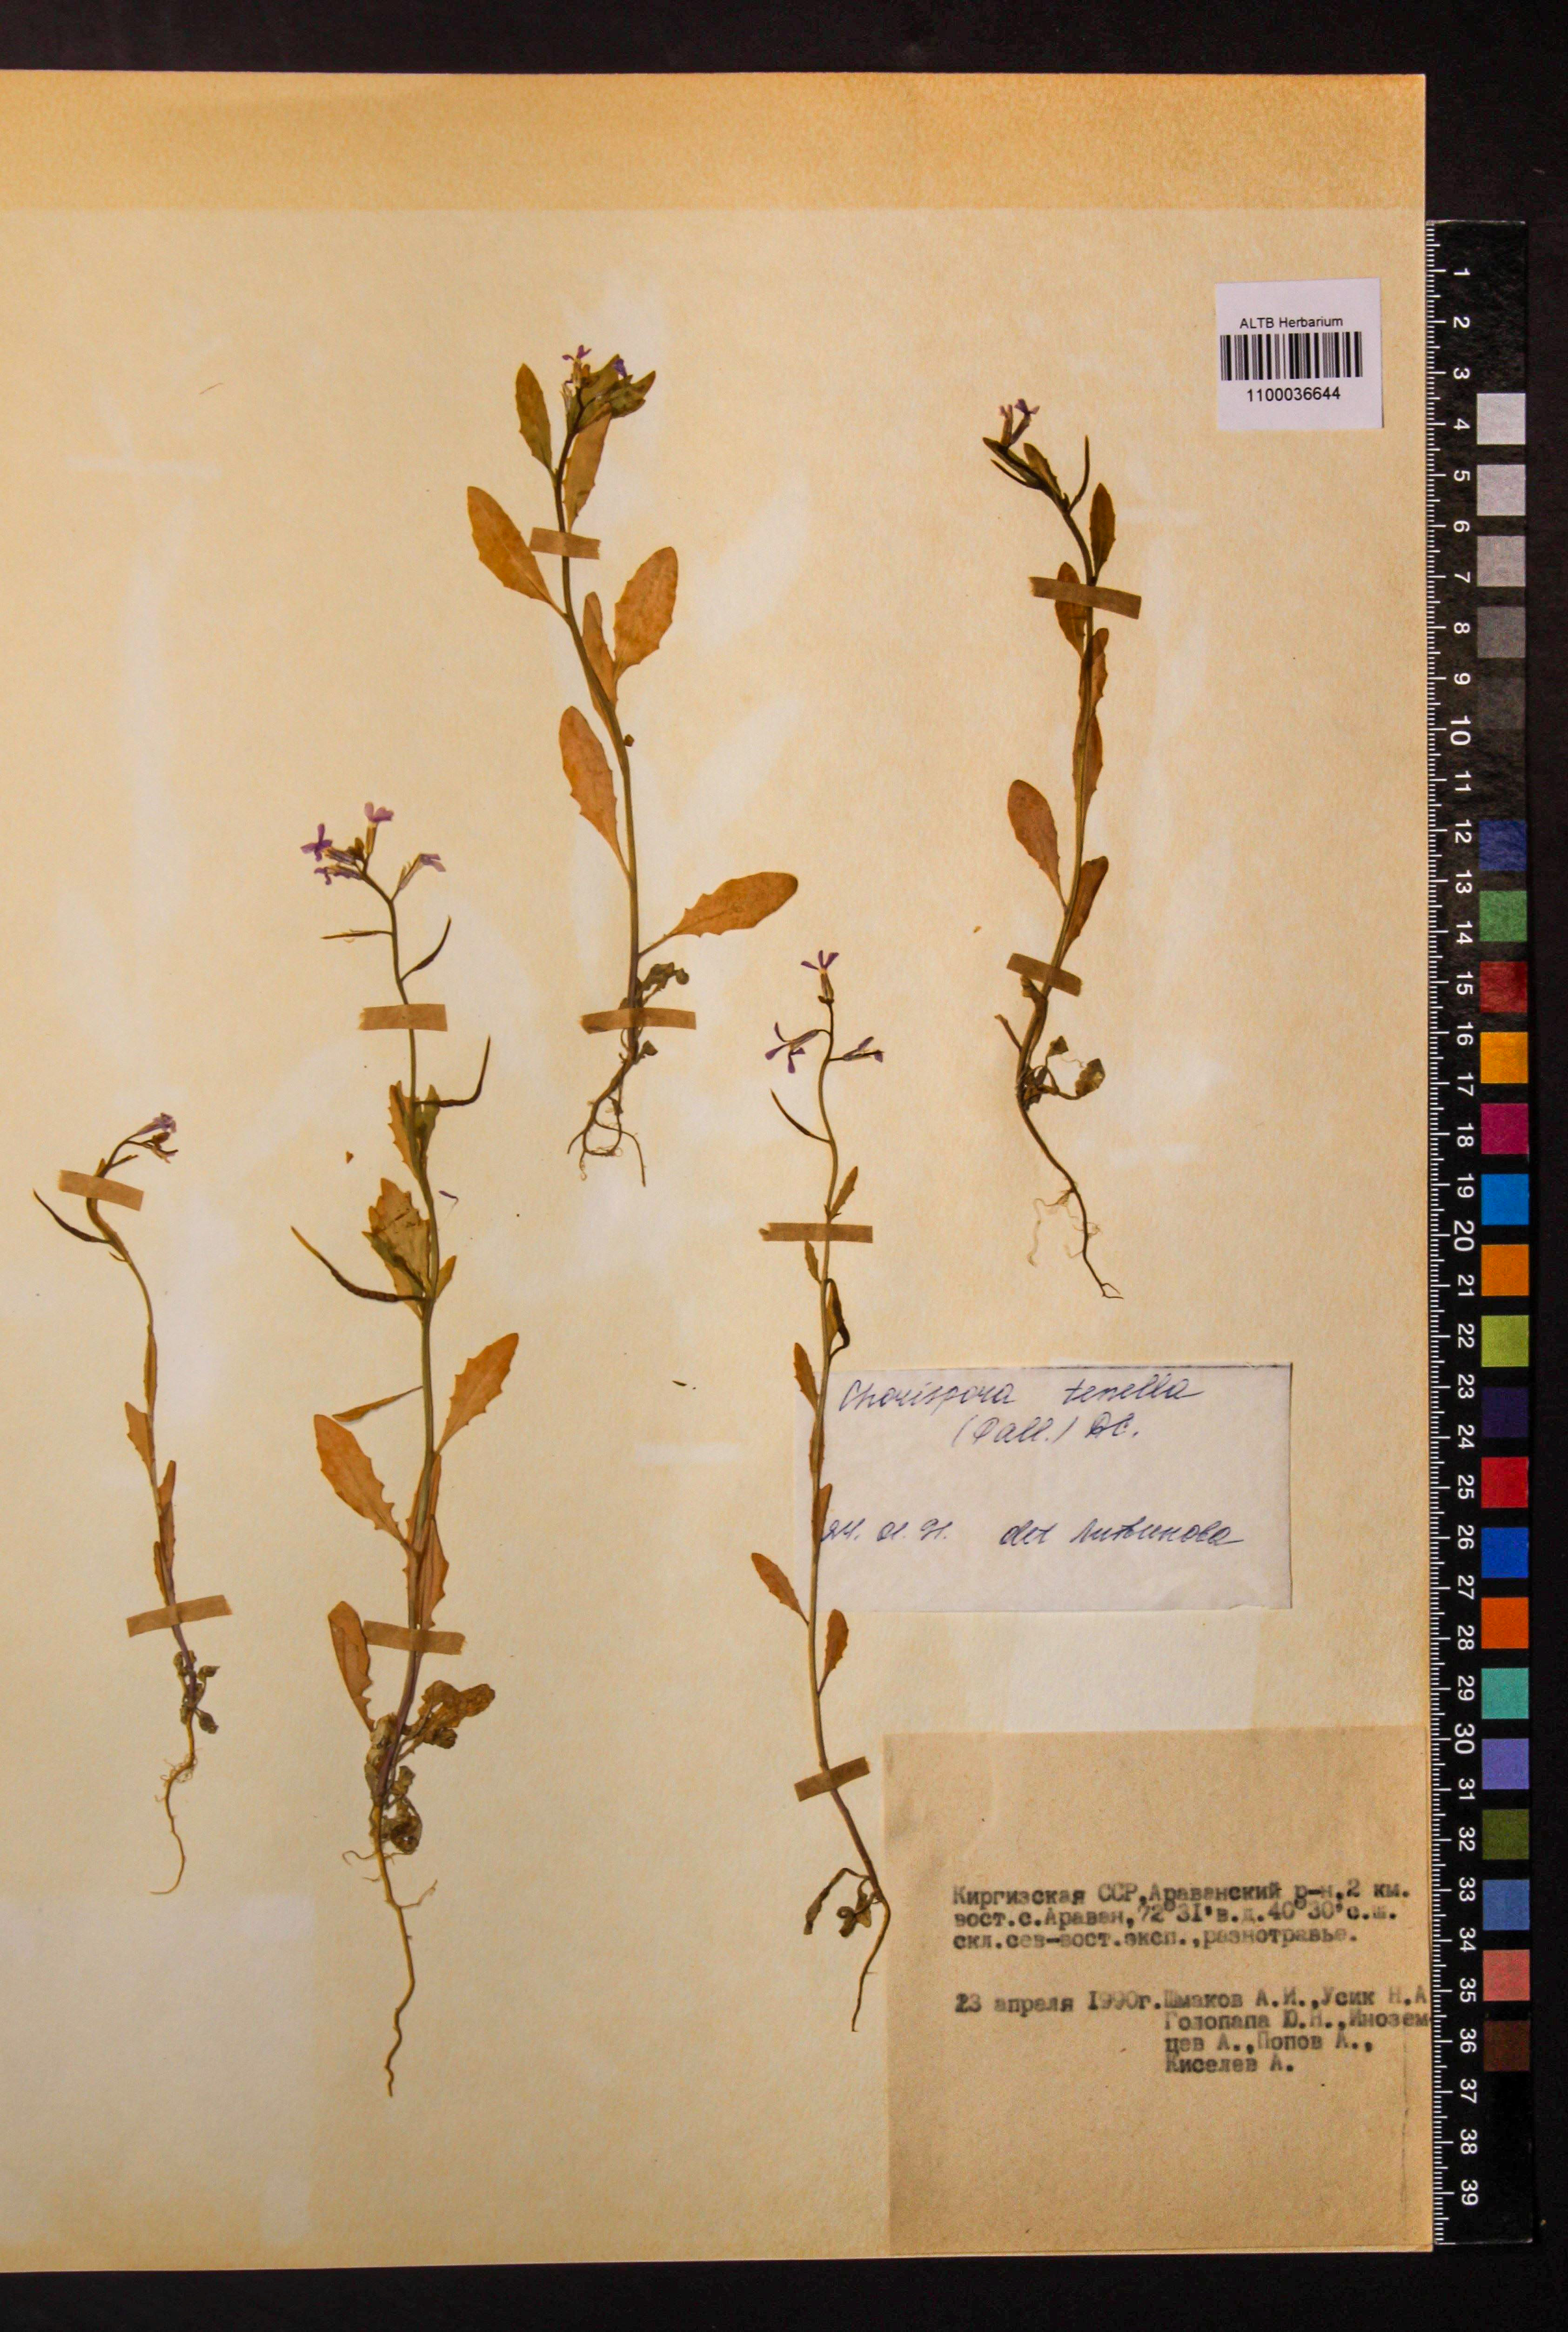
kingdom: Plantae
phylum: Tracheophyta
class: Magnoliopsida
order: Brassicales
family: Brassicaceae
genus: Chorispora
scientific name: Chorispora tenella
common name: Crossflower
